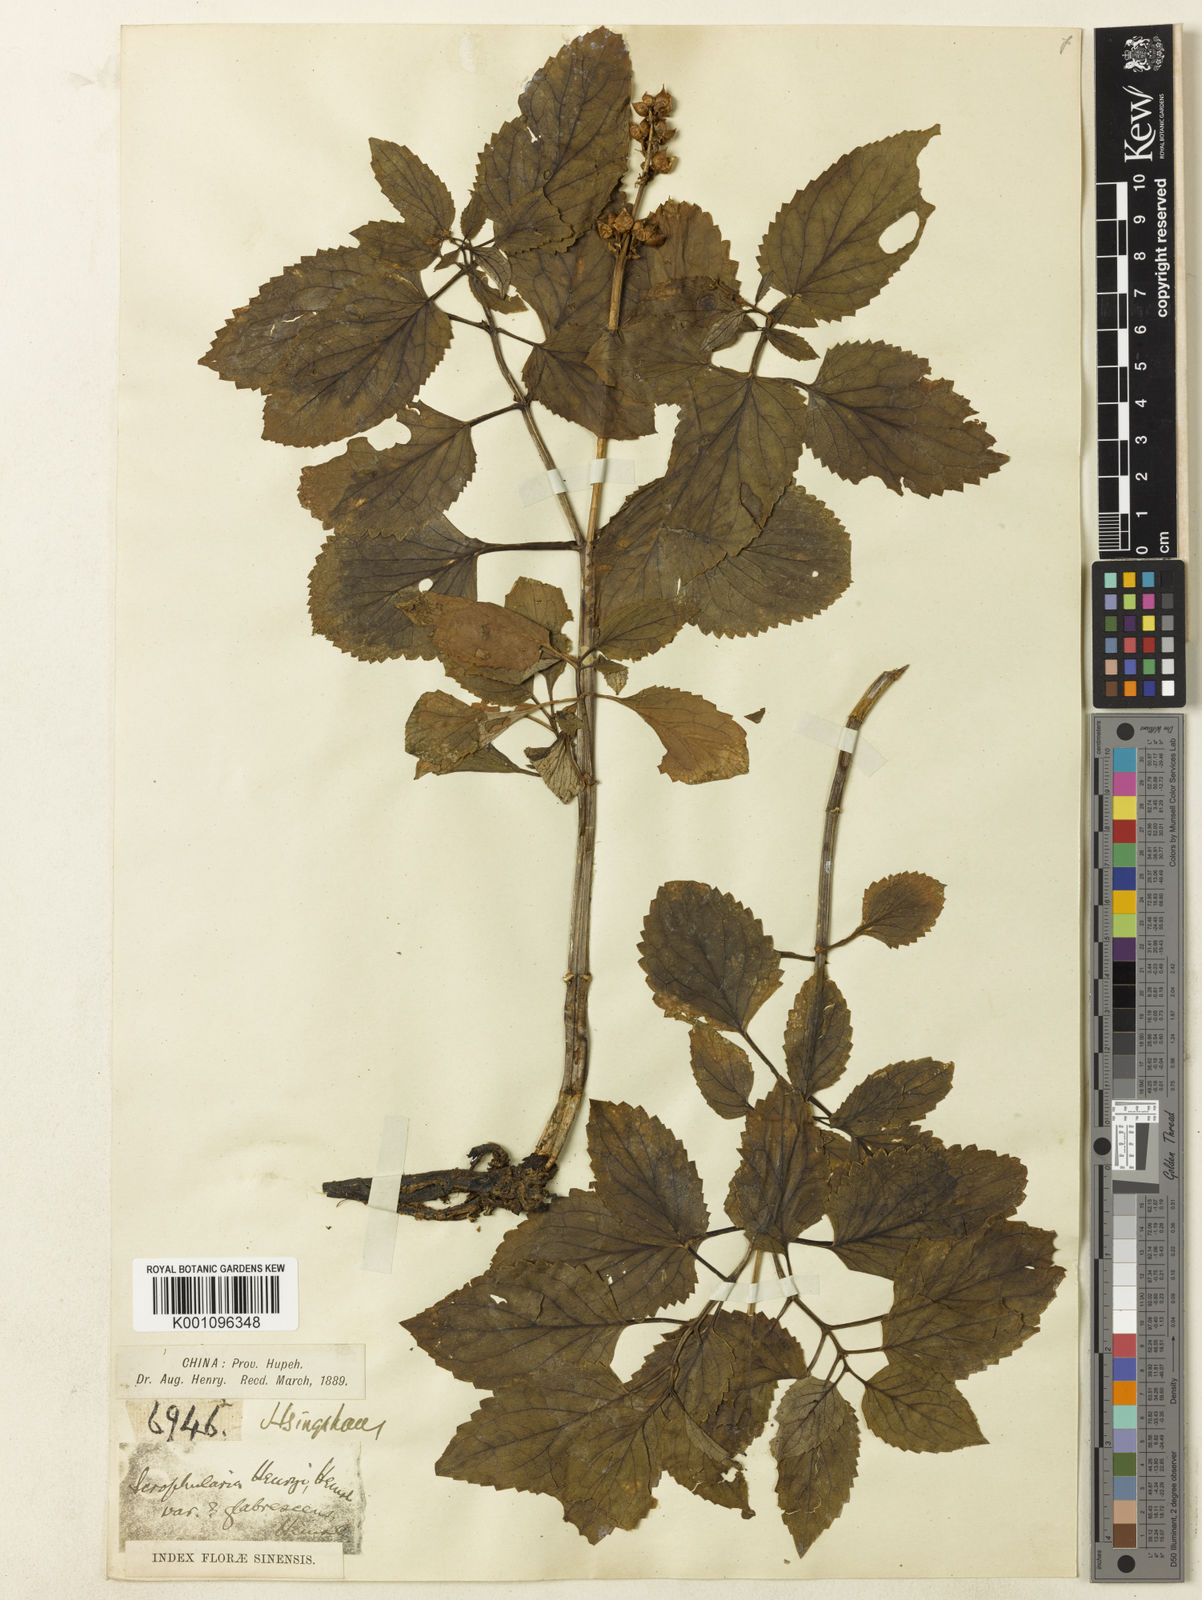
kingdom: Plantae
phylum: Tracheophyta
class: Magnoliopsida
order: Lamiales
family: Scrophulariaceae
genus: Scrophularia
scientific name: Scrophularia henryi
